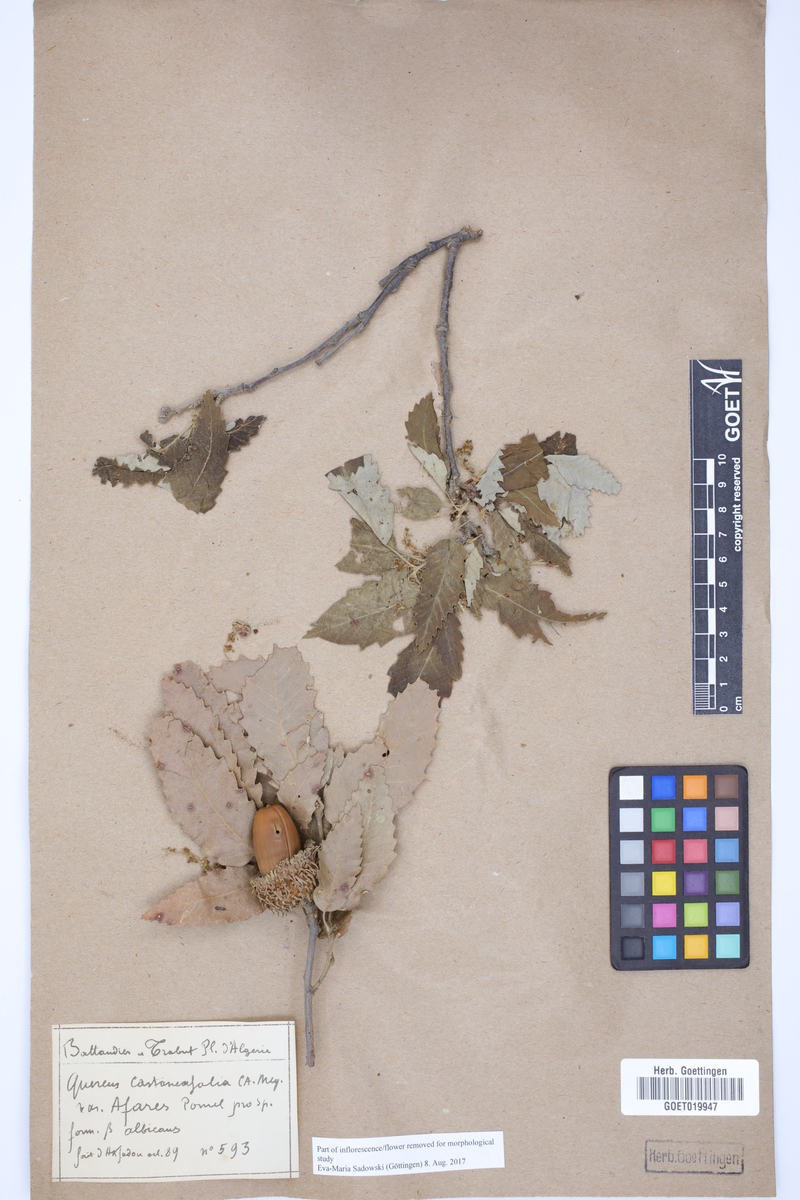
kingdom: Plantae
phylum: Tracheophyta
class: Magnoliopsida
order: Fagales
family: Fagaceae
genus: Quercus
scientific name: Quercus castaneifolia
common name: Chestnut-leaved oak
